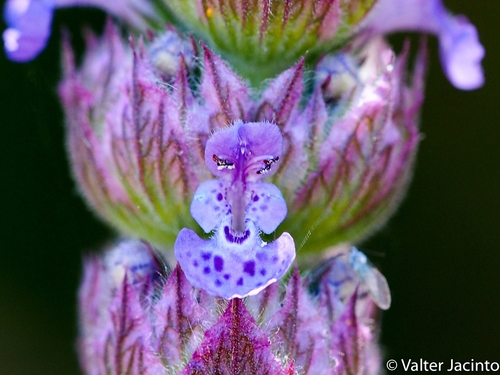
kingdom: Plantae
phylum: Tracheophyta
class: Magnoliopsida
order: Lamiales
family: Lamiaceae
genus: Nepeta
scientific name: Nepeta tuberosa
